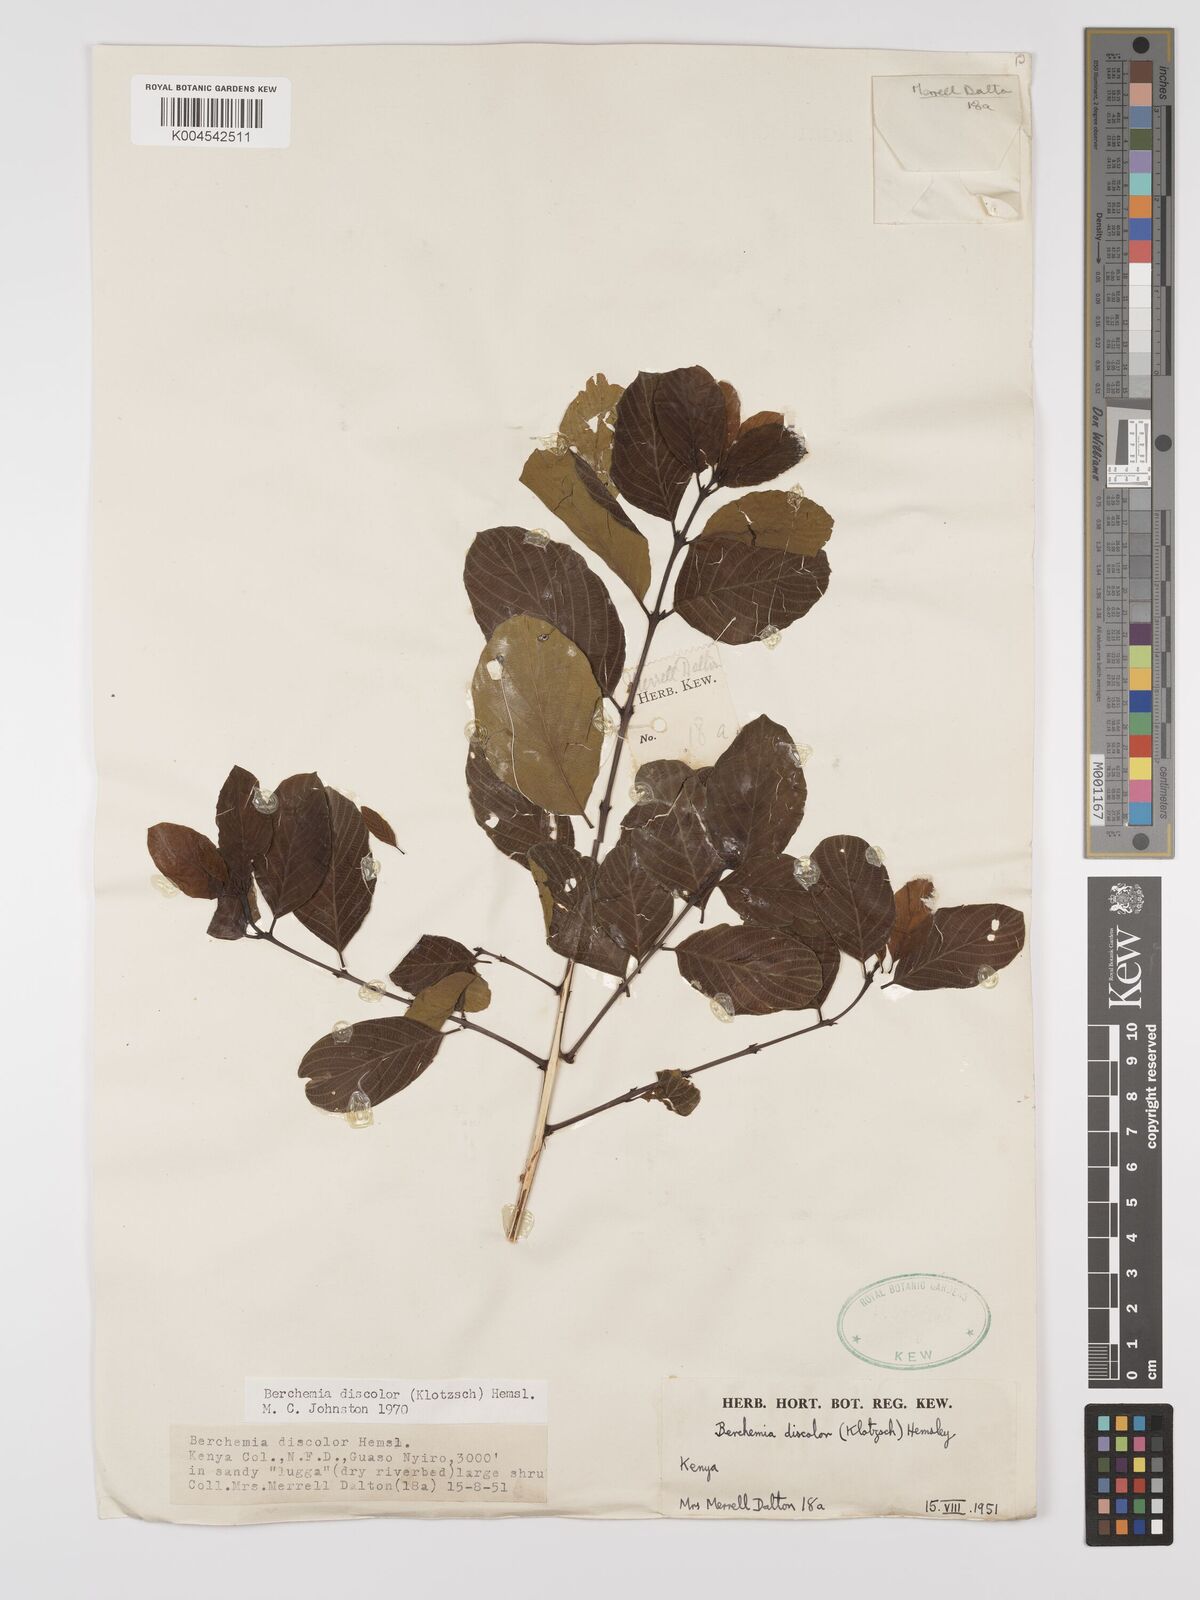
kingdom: Plantae
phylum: Tracheophyta
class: Magnoliopsida
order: Rosales
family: Rhamnaceae
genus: Phyllogeiton
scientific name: Phyllogeiton discolor
